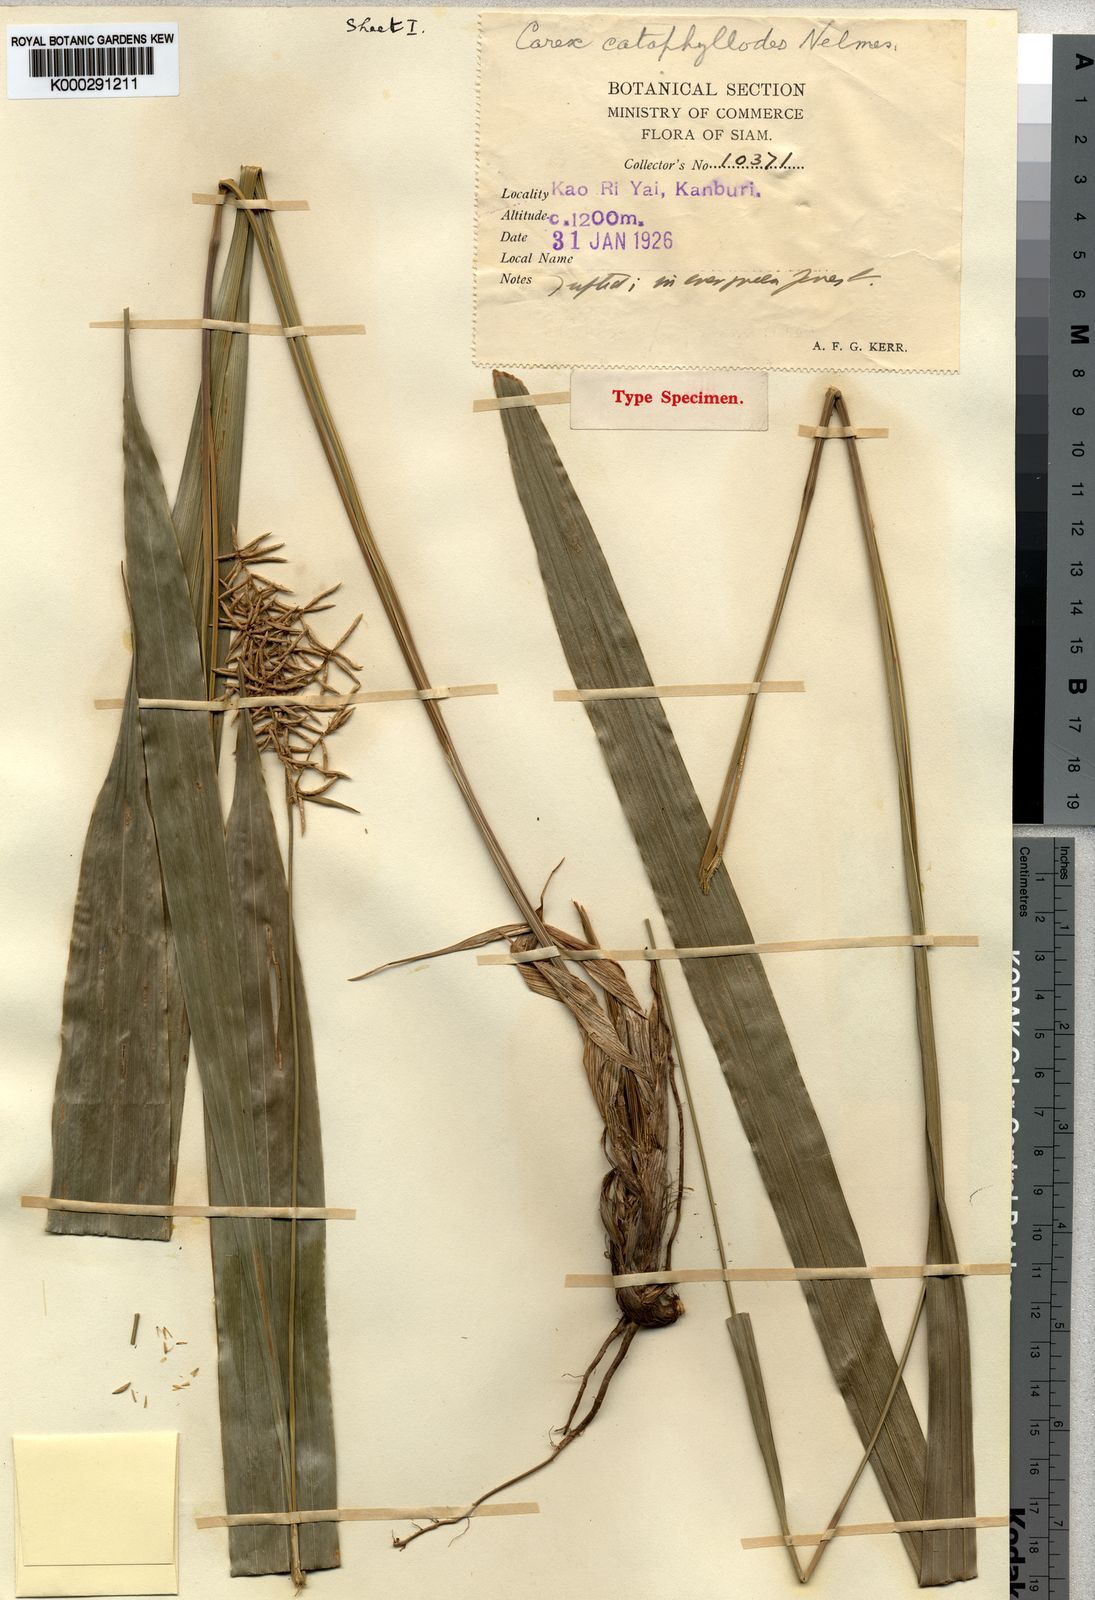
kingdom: Plantae
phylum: Tracheophyta
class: Liliopsida
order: Poales
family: Cyperaceae
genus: Carex
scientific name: Carex cataphyllodes
